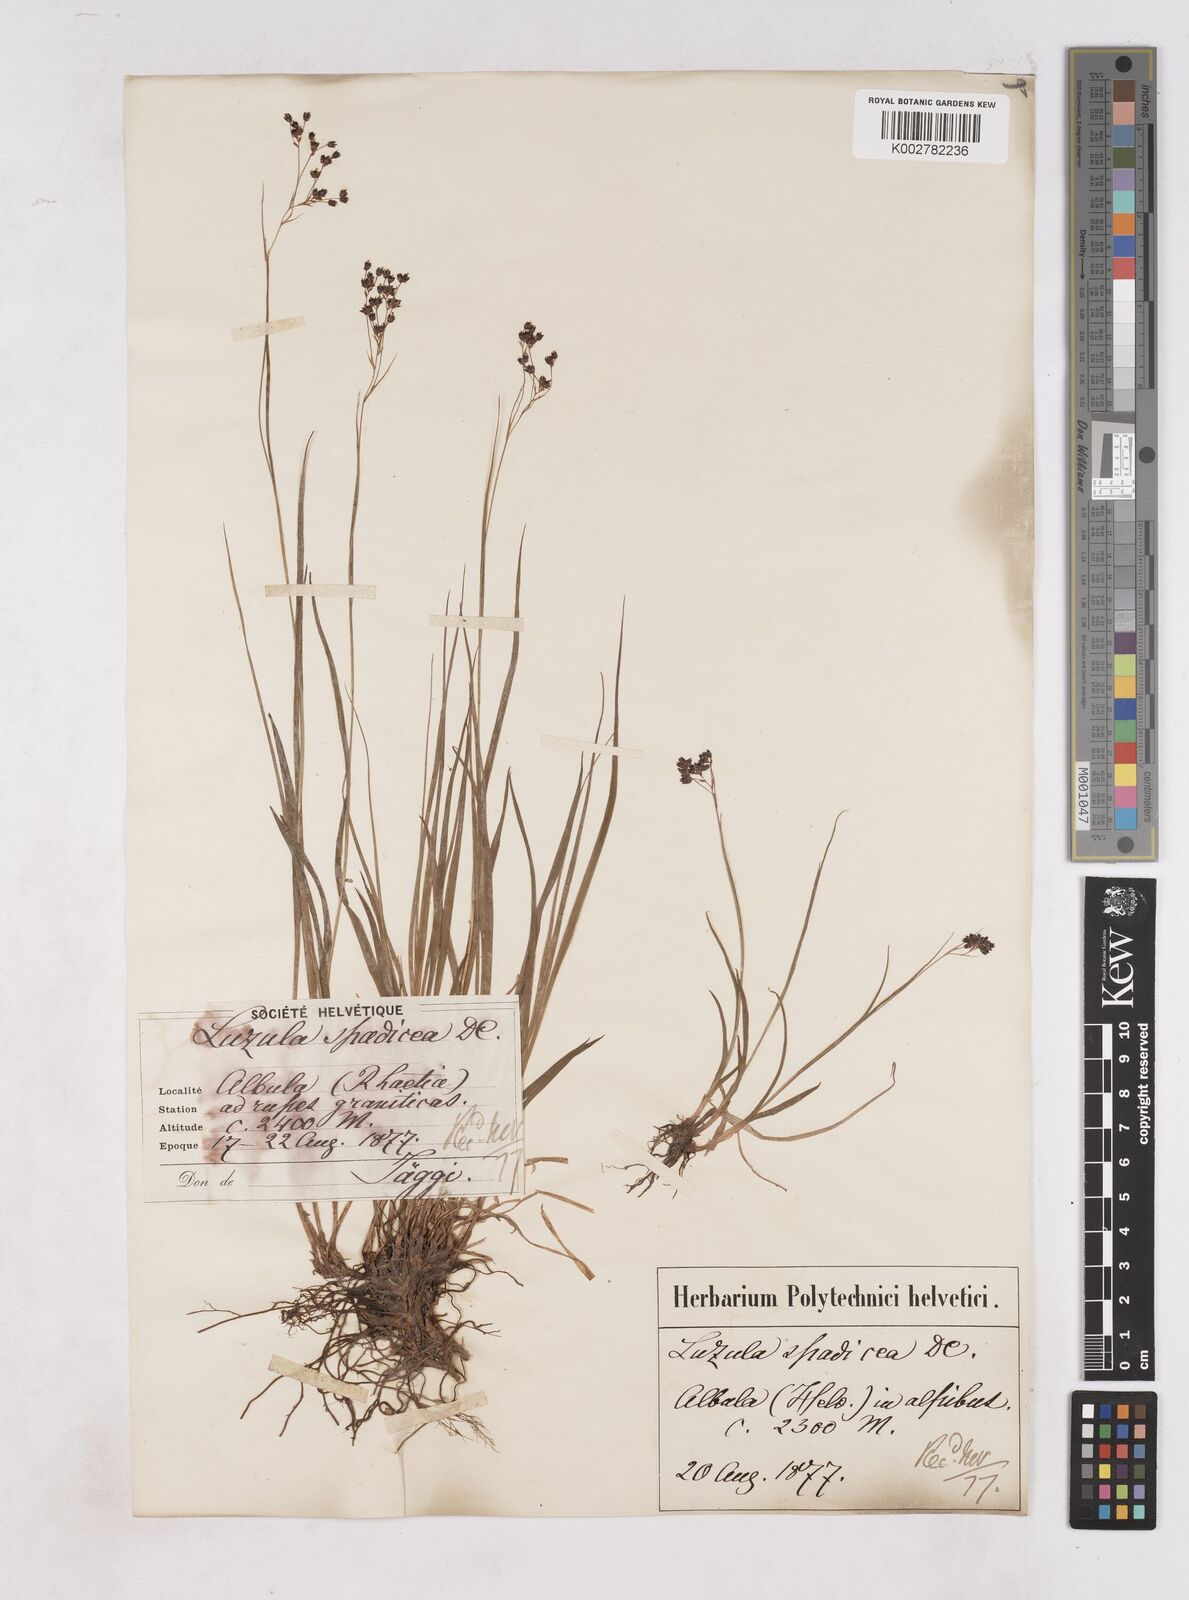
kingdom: Plantae
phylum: Tracheophyta
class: Liliopsida
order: Poales
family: Juncaceae
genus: Luzula
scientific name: Luzula alpinopilosa
